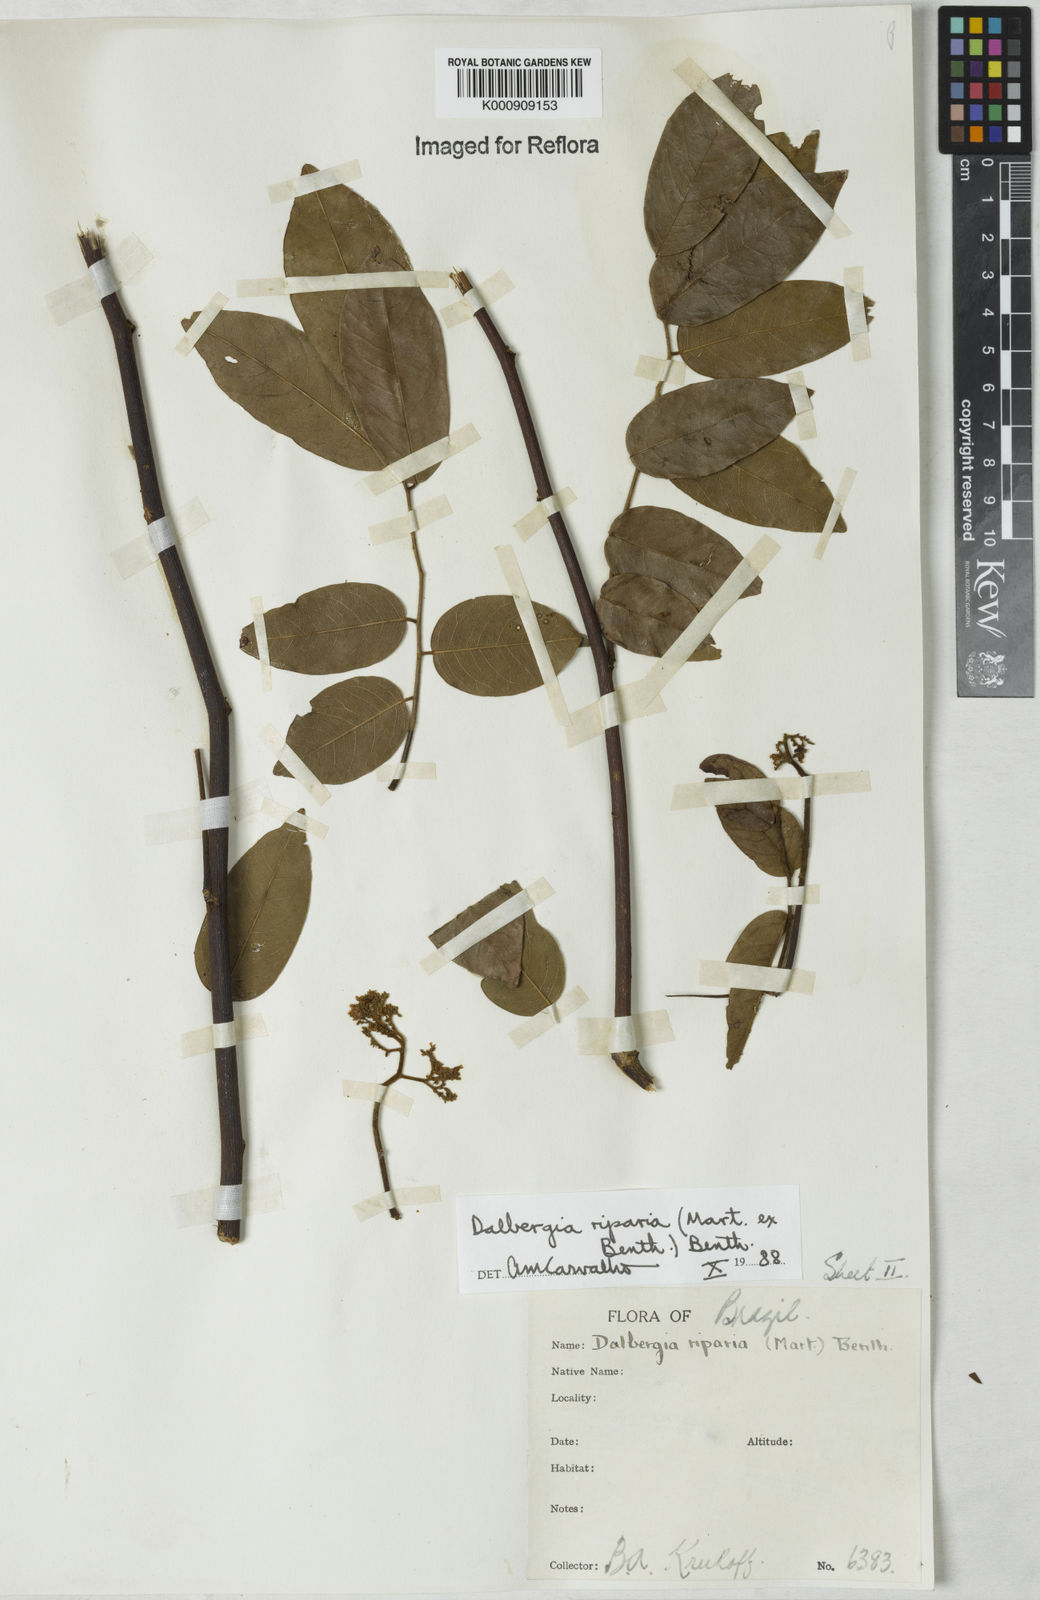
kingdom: Plantae
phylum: Tracheophyta
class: Magnoliopsida
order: Fabales
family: Fabaceae
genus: Dalbergia
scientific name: Dalbergia riparia
